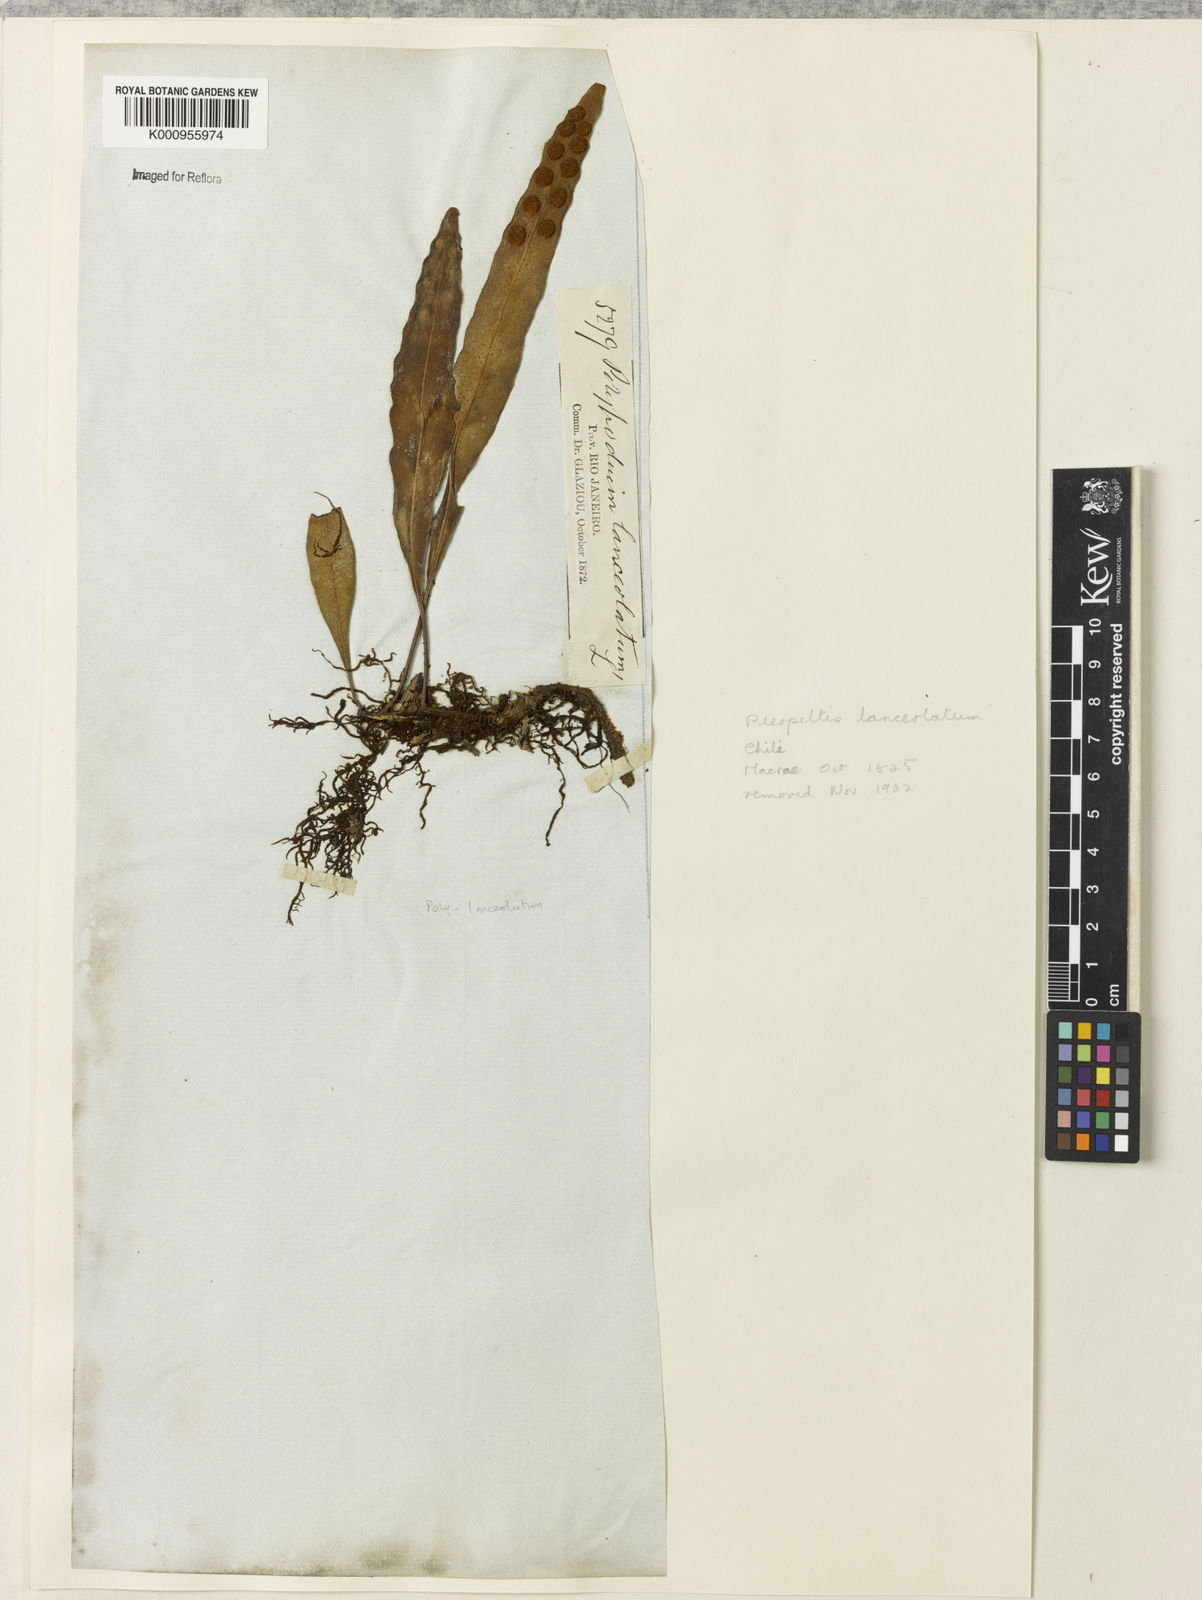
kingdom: Plantae
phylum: Tracheophyta
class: Polypodiopsida
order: Polypodiales
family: Polypodiaceae
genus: Pleopeltis
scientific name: Pleopeltis
